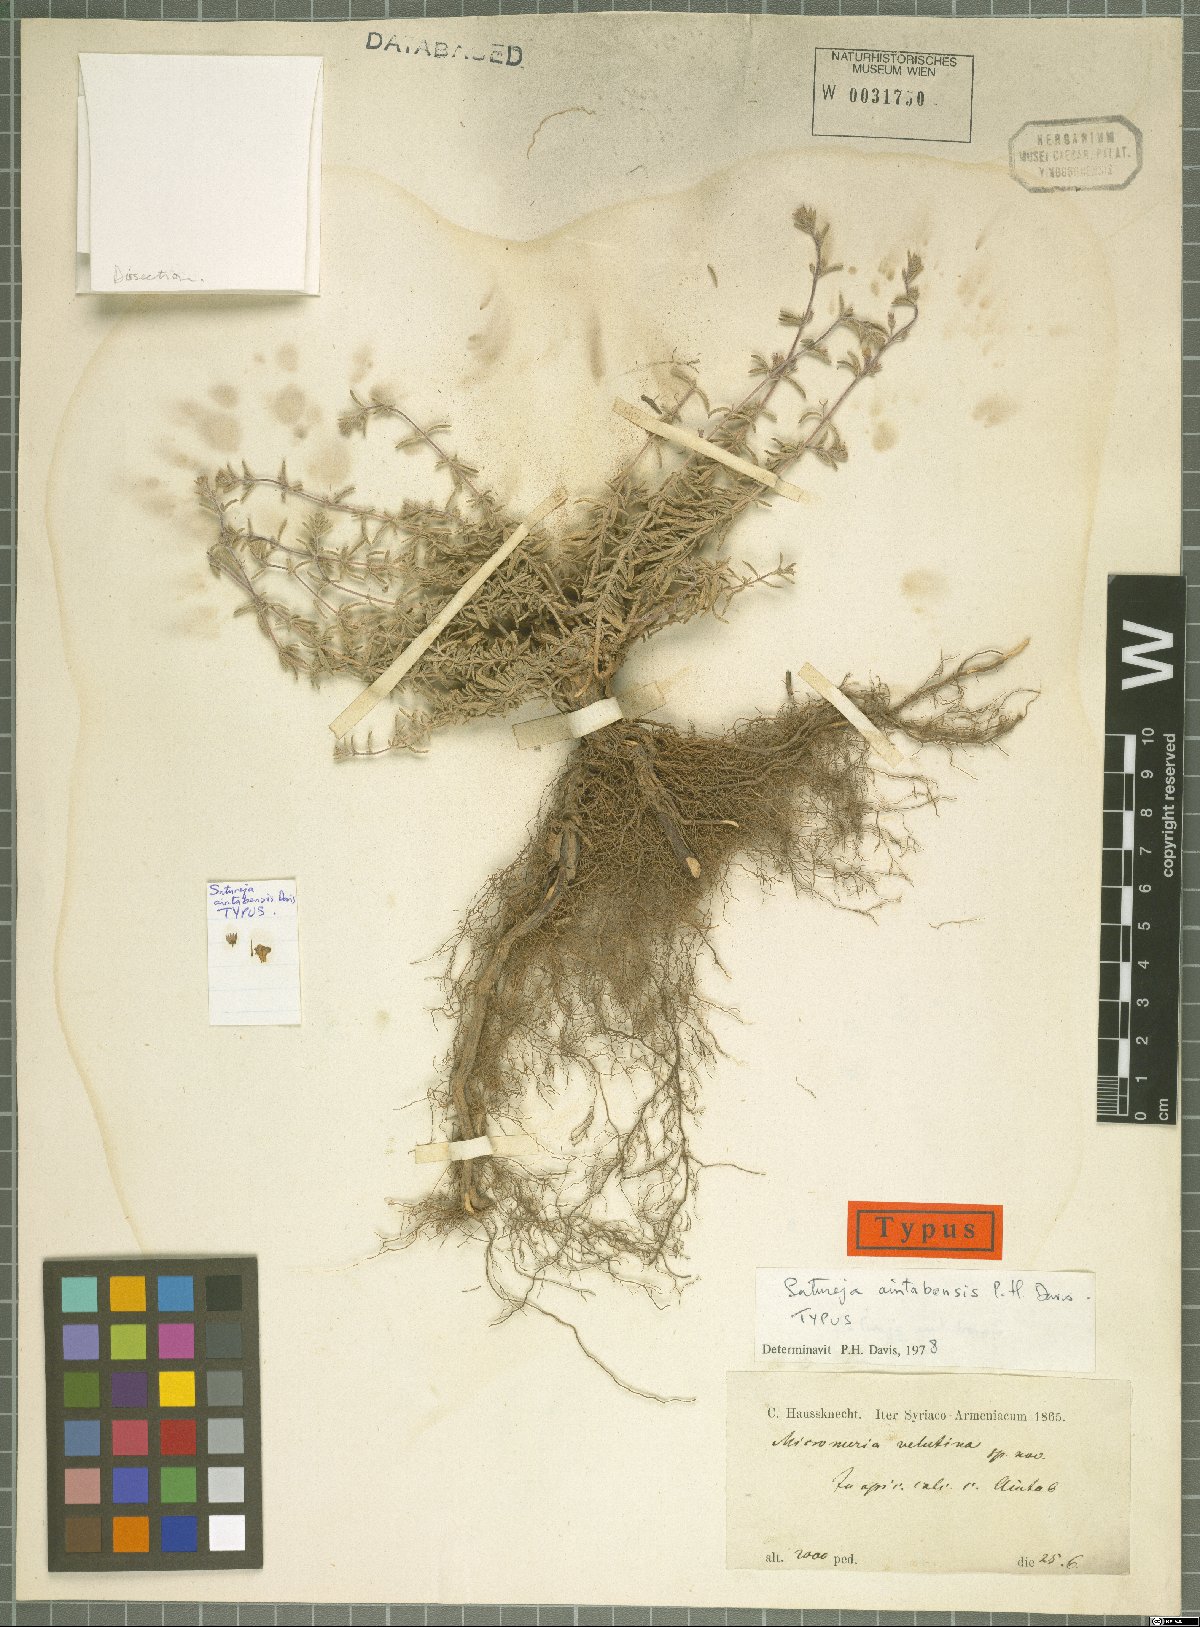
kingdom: Plantae
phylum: Tracheophyta
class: Magnoliopsida
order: Lamiales
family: Lamiaceae
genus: Satureja
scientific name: Satureja aintabensis
